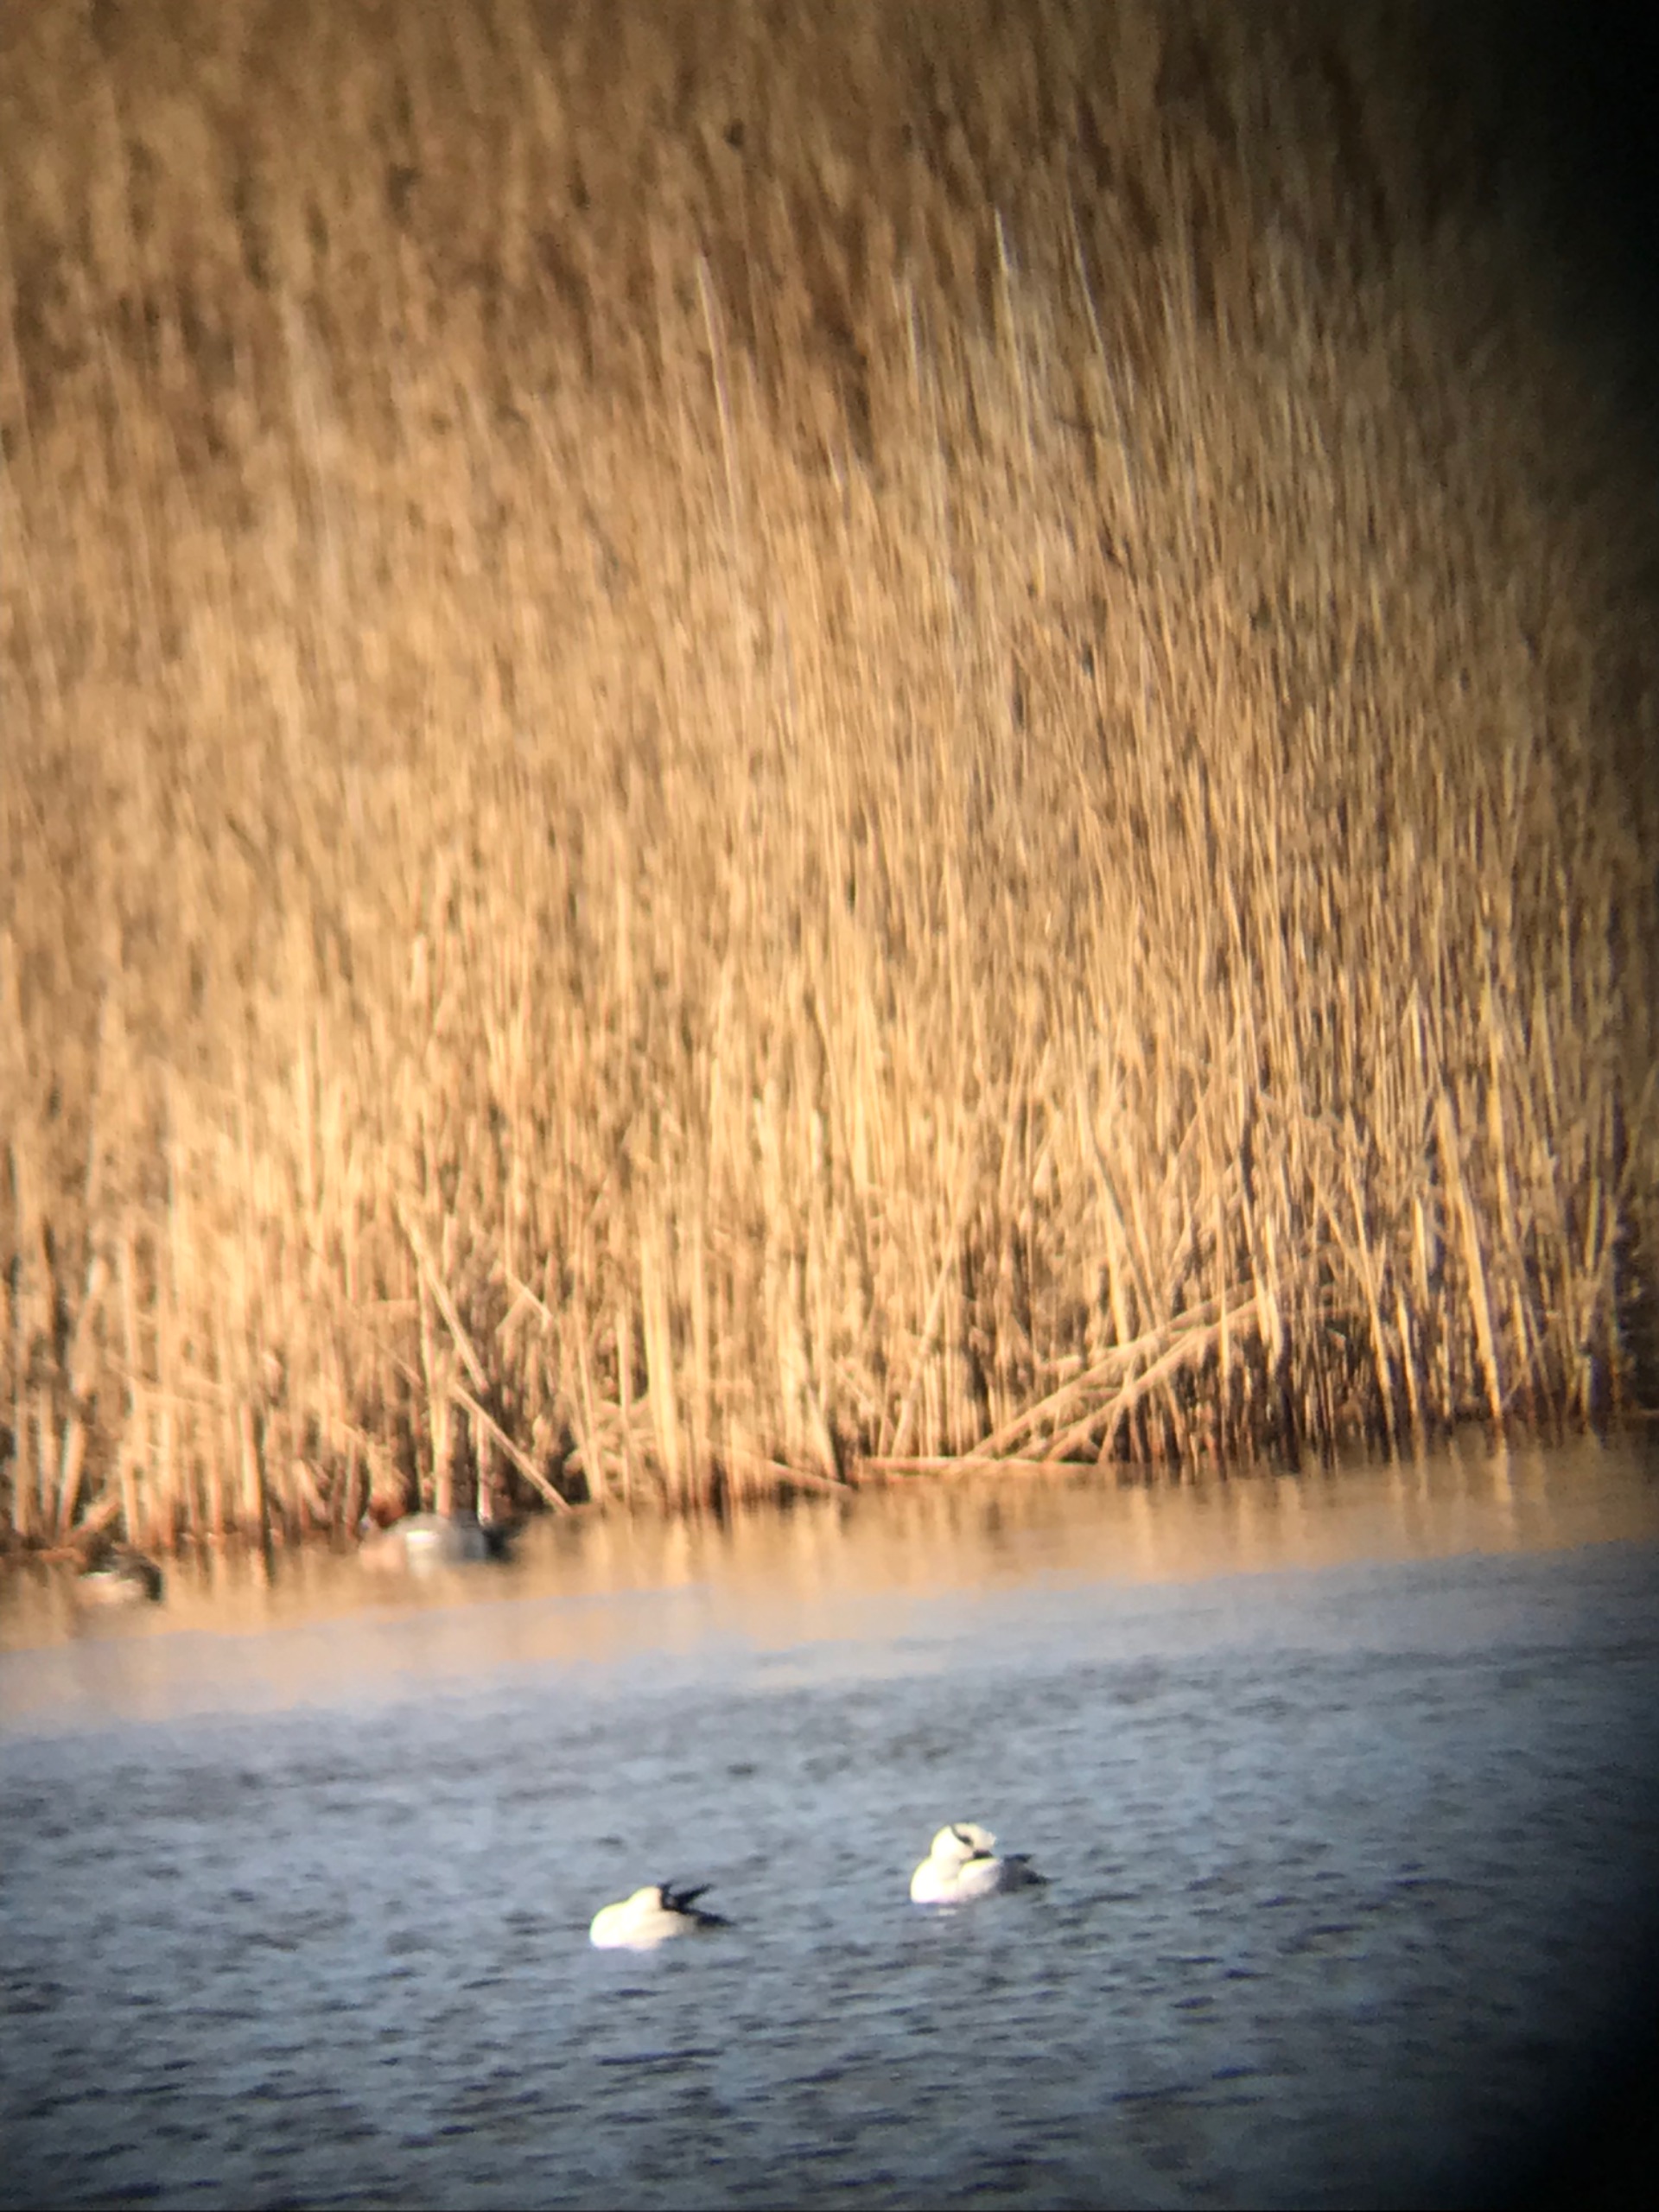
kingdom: Animalia
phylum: Chordata
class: Aves
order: Anseriformes
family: Anatidae
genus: Mergellus
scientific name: Mergellus albellus
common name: Lille skallesluger
